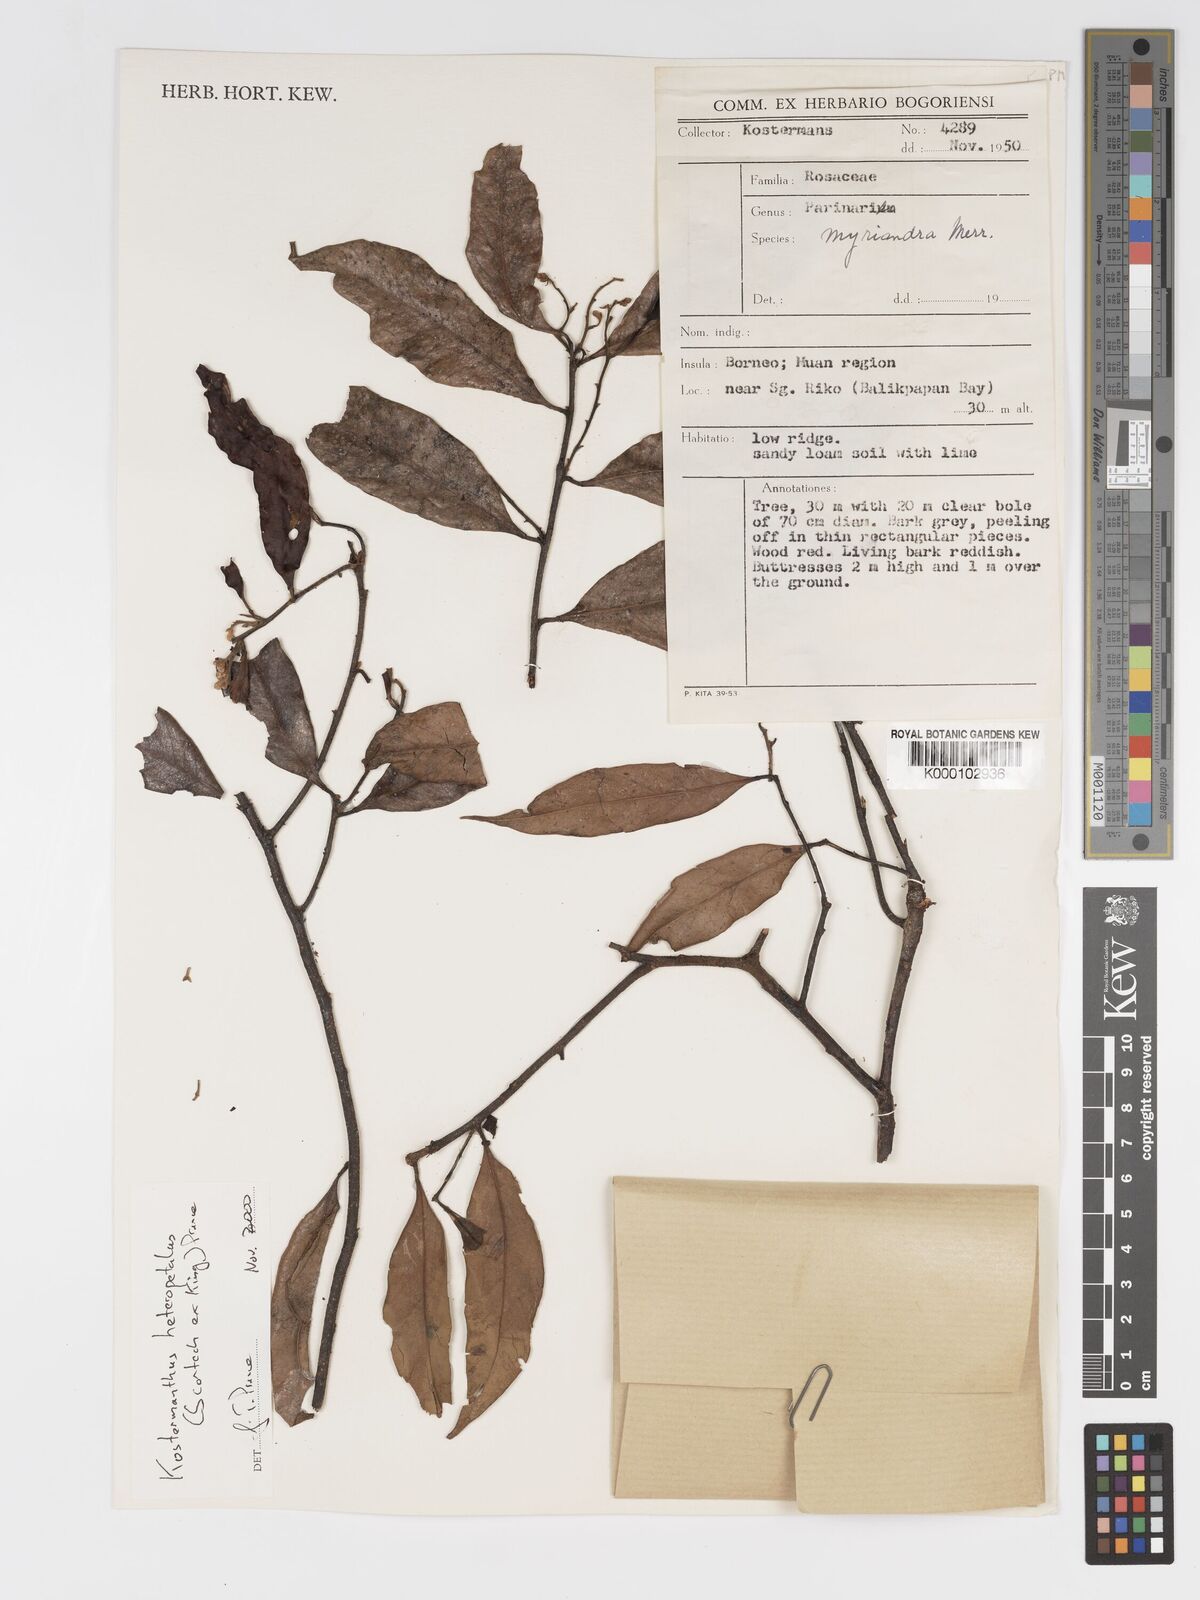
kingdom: Plantae
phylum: Tracheophyta
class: Magnoliopsida
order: Malpighiales
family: Chrysobalanaceae
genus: Kostermanthus
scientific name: Kostermanthus heteropetalus
